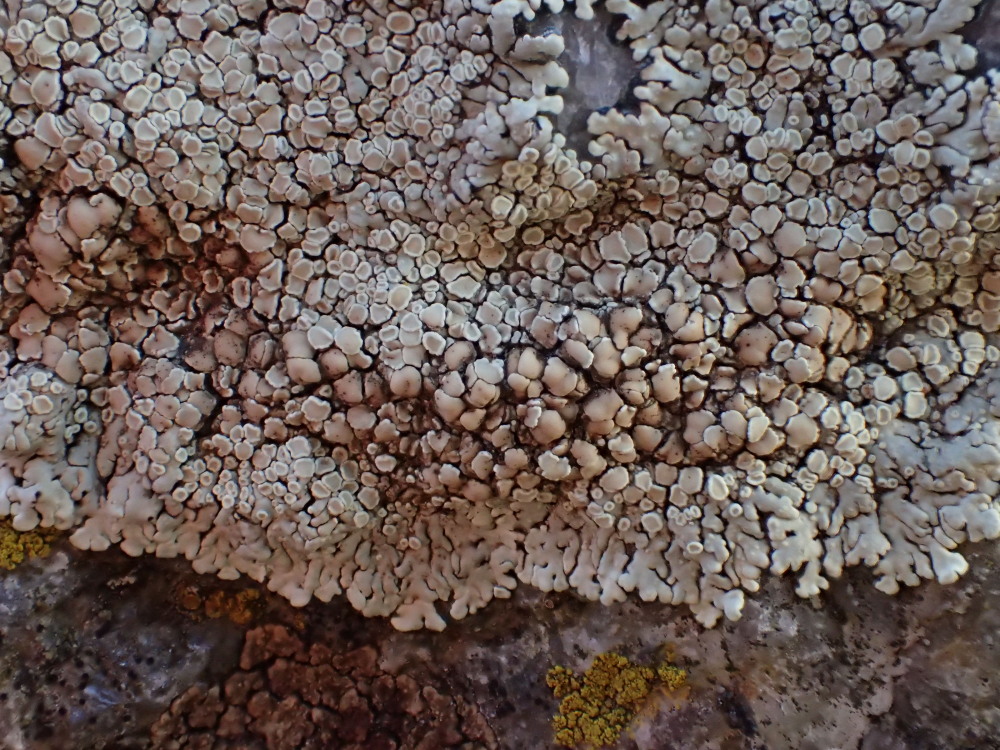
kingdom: Fungi
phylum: Ascomycota
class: Lecanoromycetes
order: Lecanorales
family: Lecanoraceae
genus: Protoparmeliopsis
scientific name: Protoparmeliopsis muralis
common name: randfliget kantskivelav
